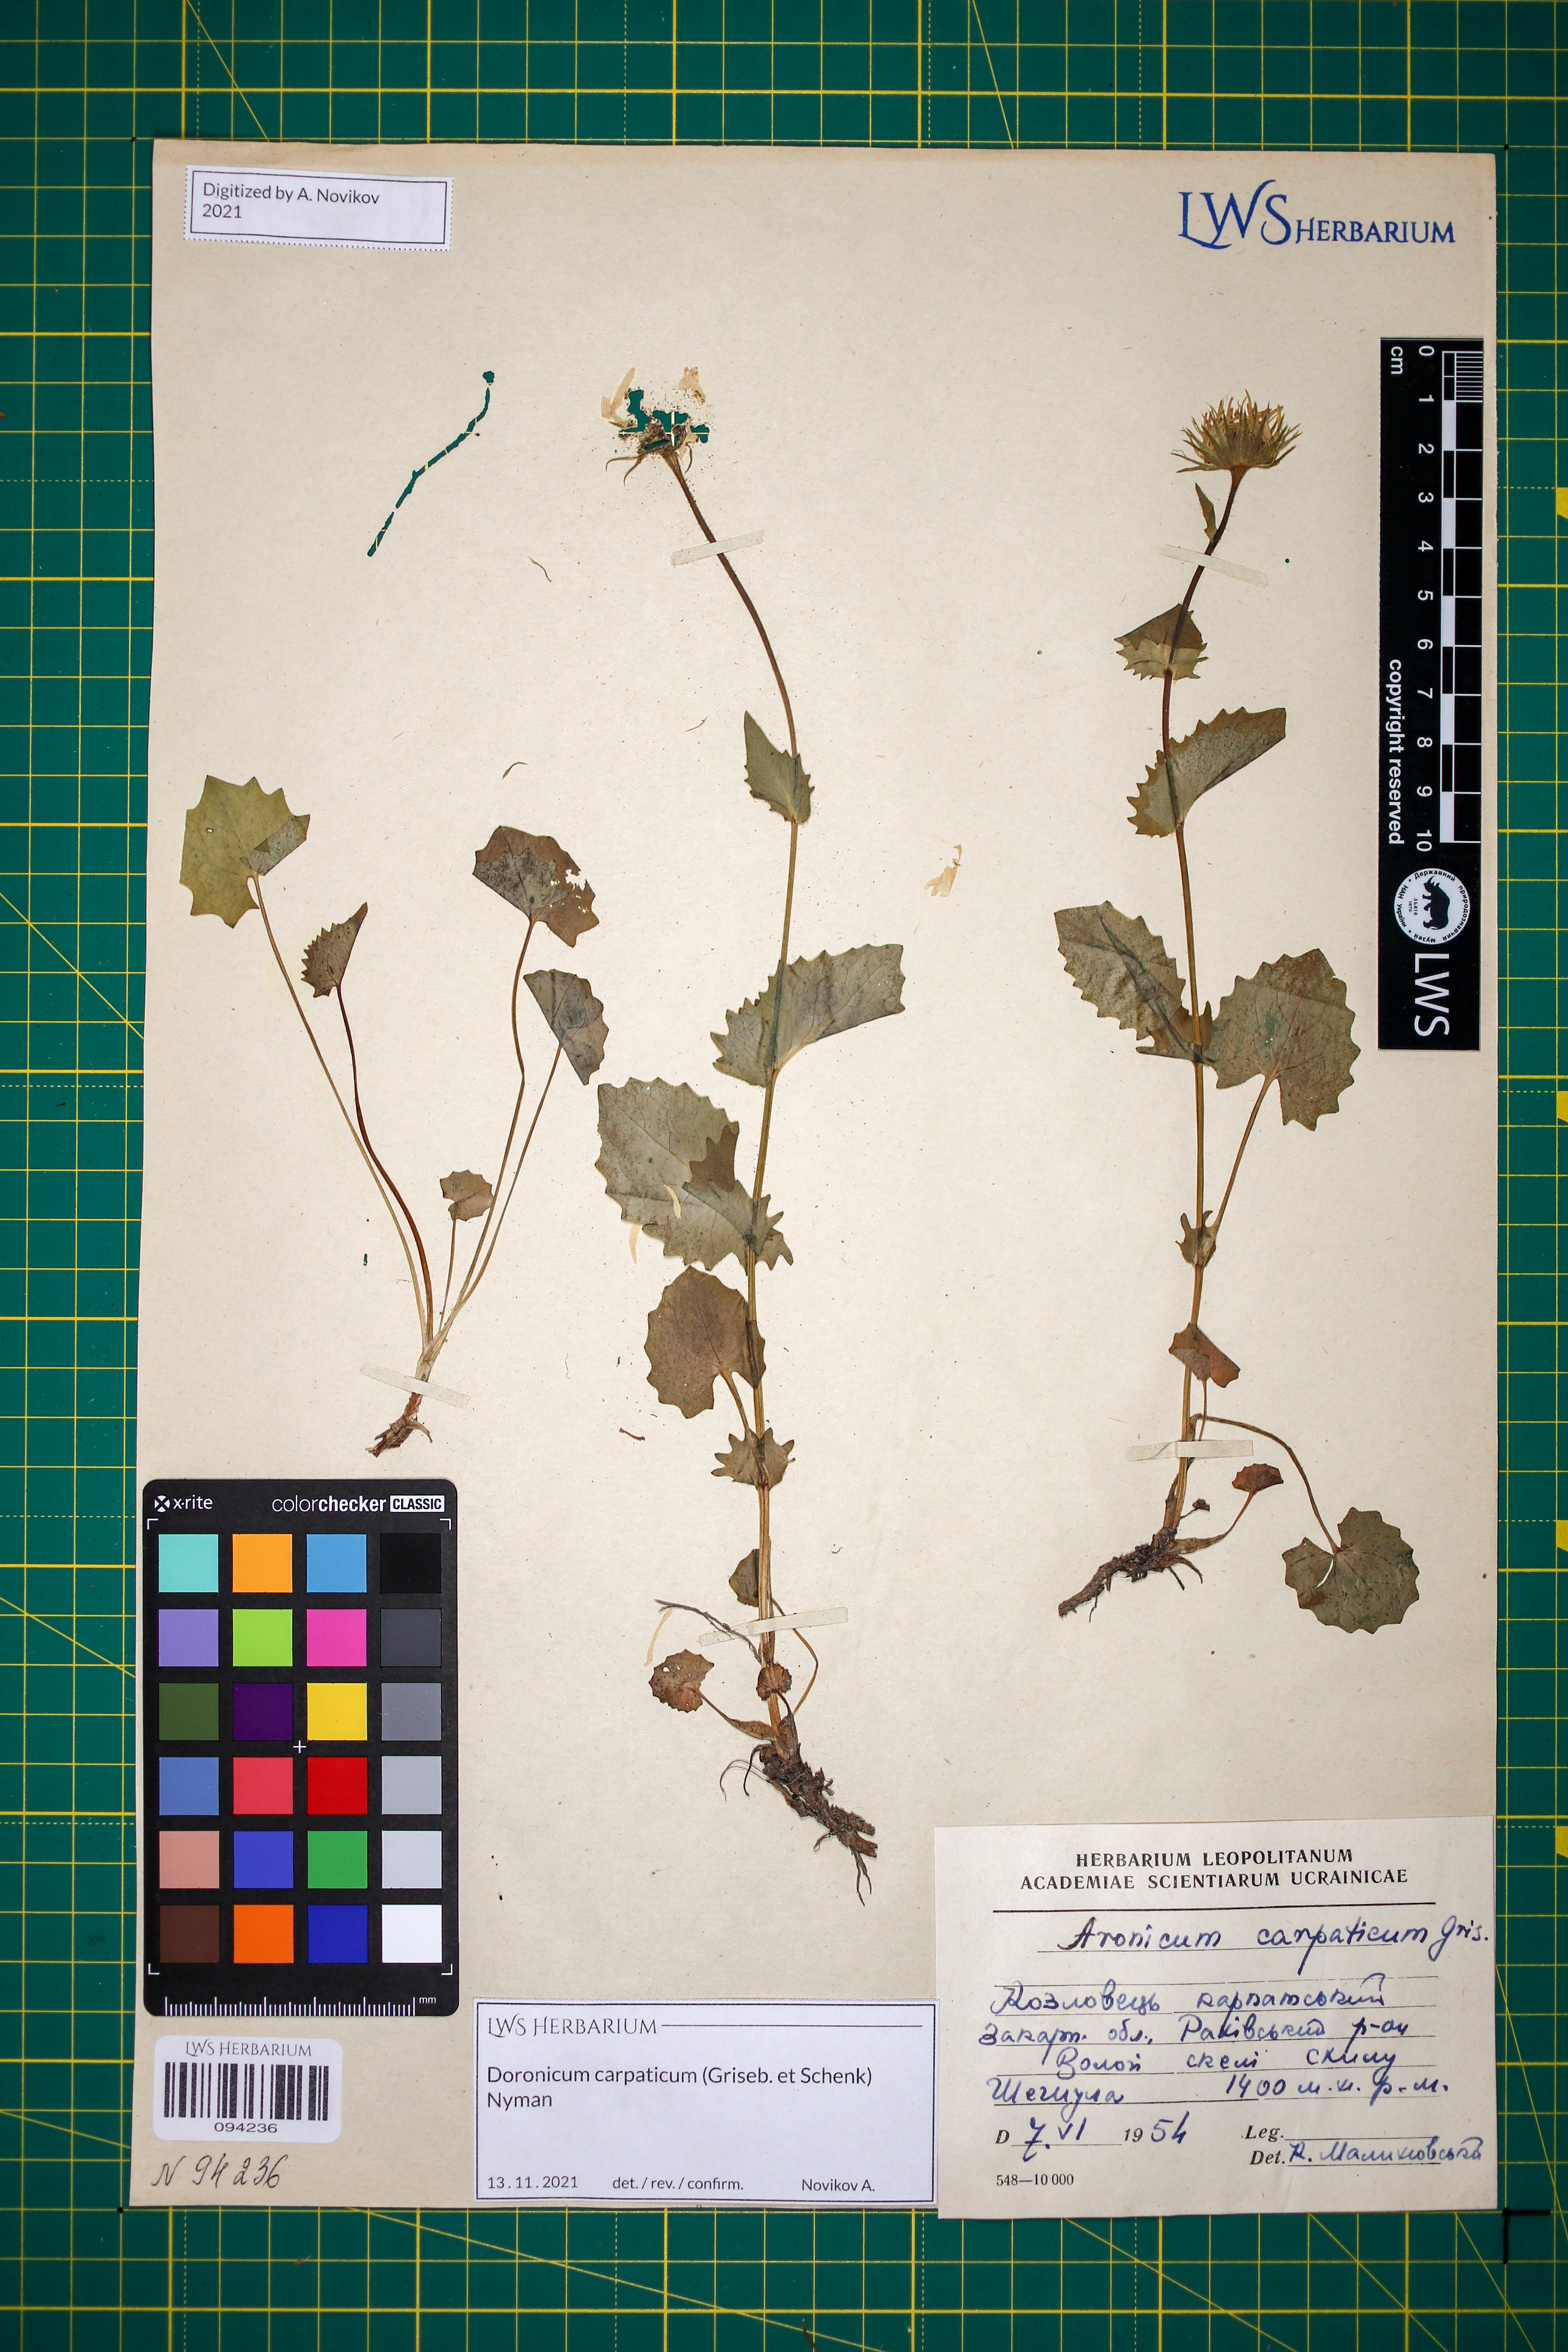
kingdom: Plantae
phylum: Tracheophyta
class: Magnoliopsida
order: Asterales
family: Asteraceae
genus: Doronicum
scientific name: Doronicum carpaticum
